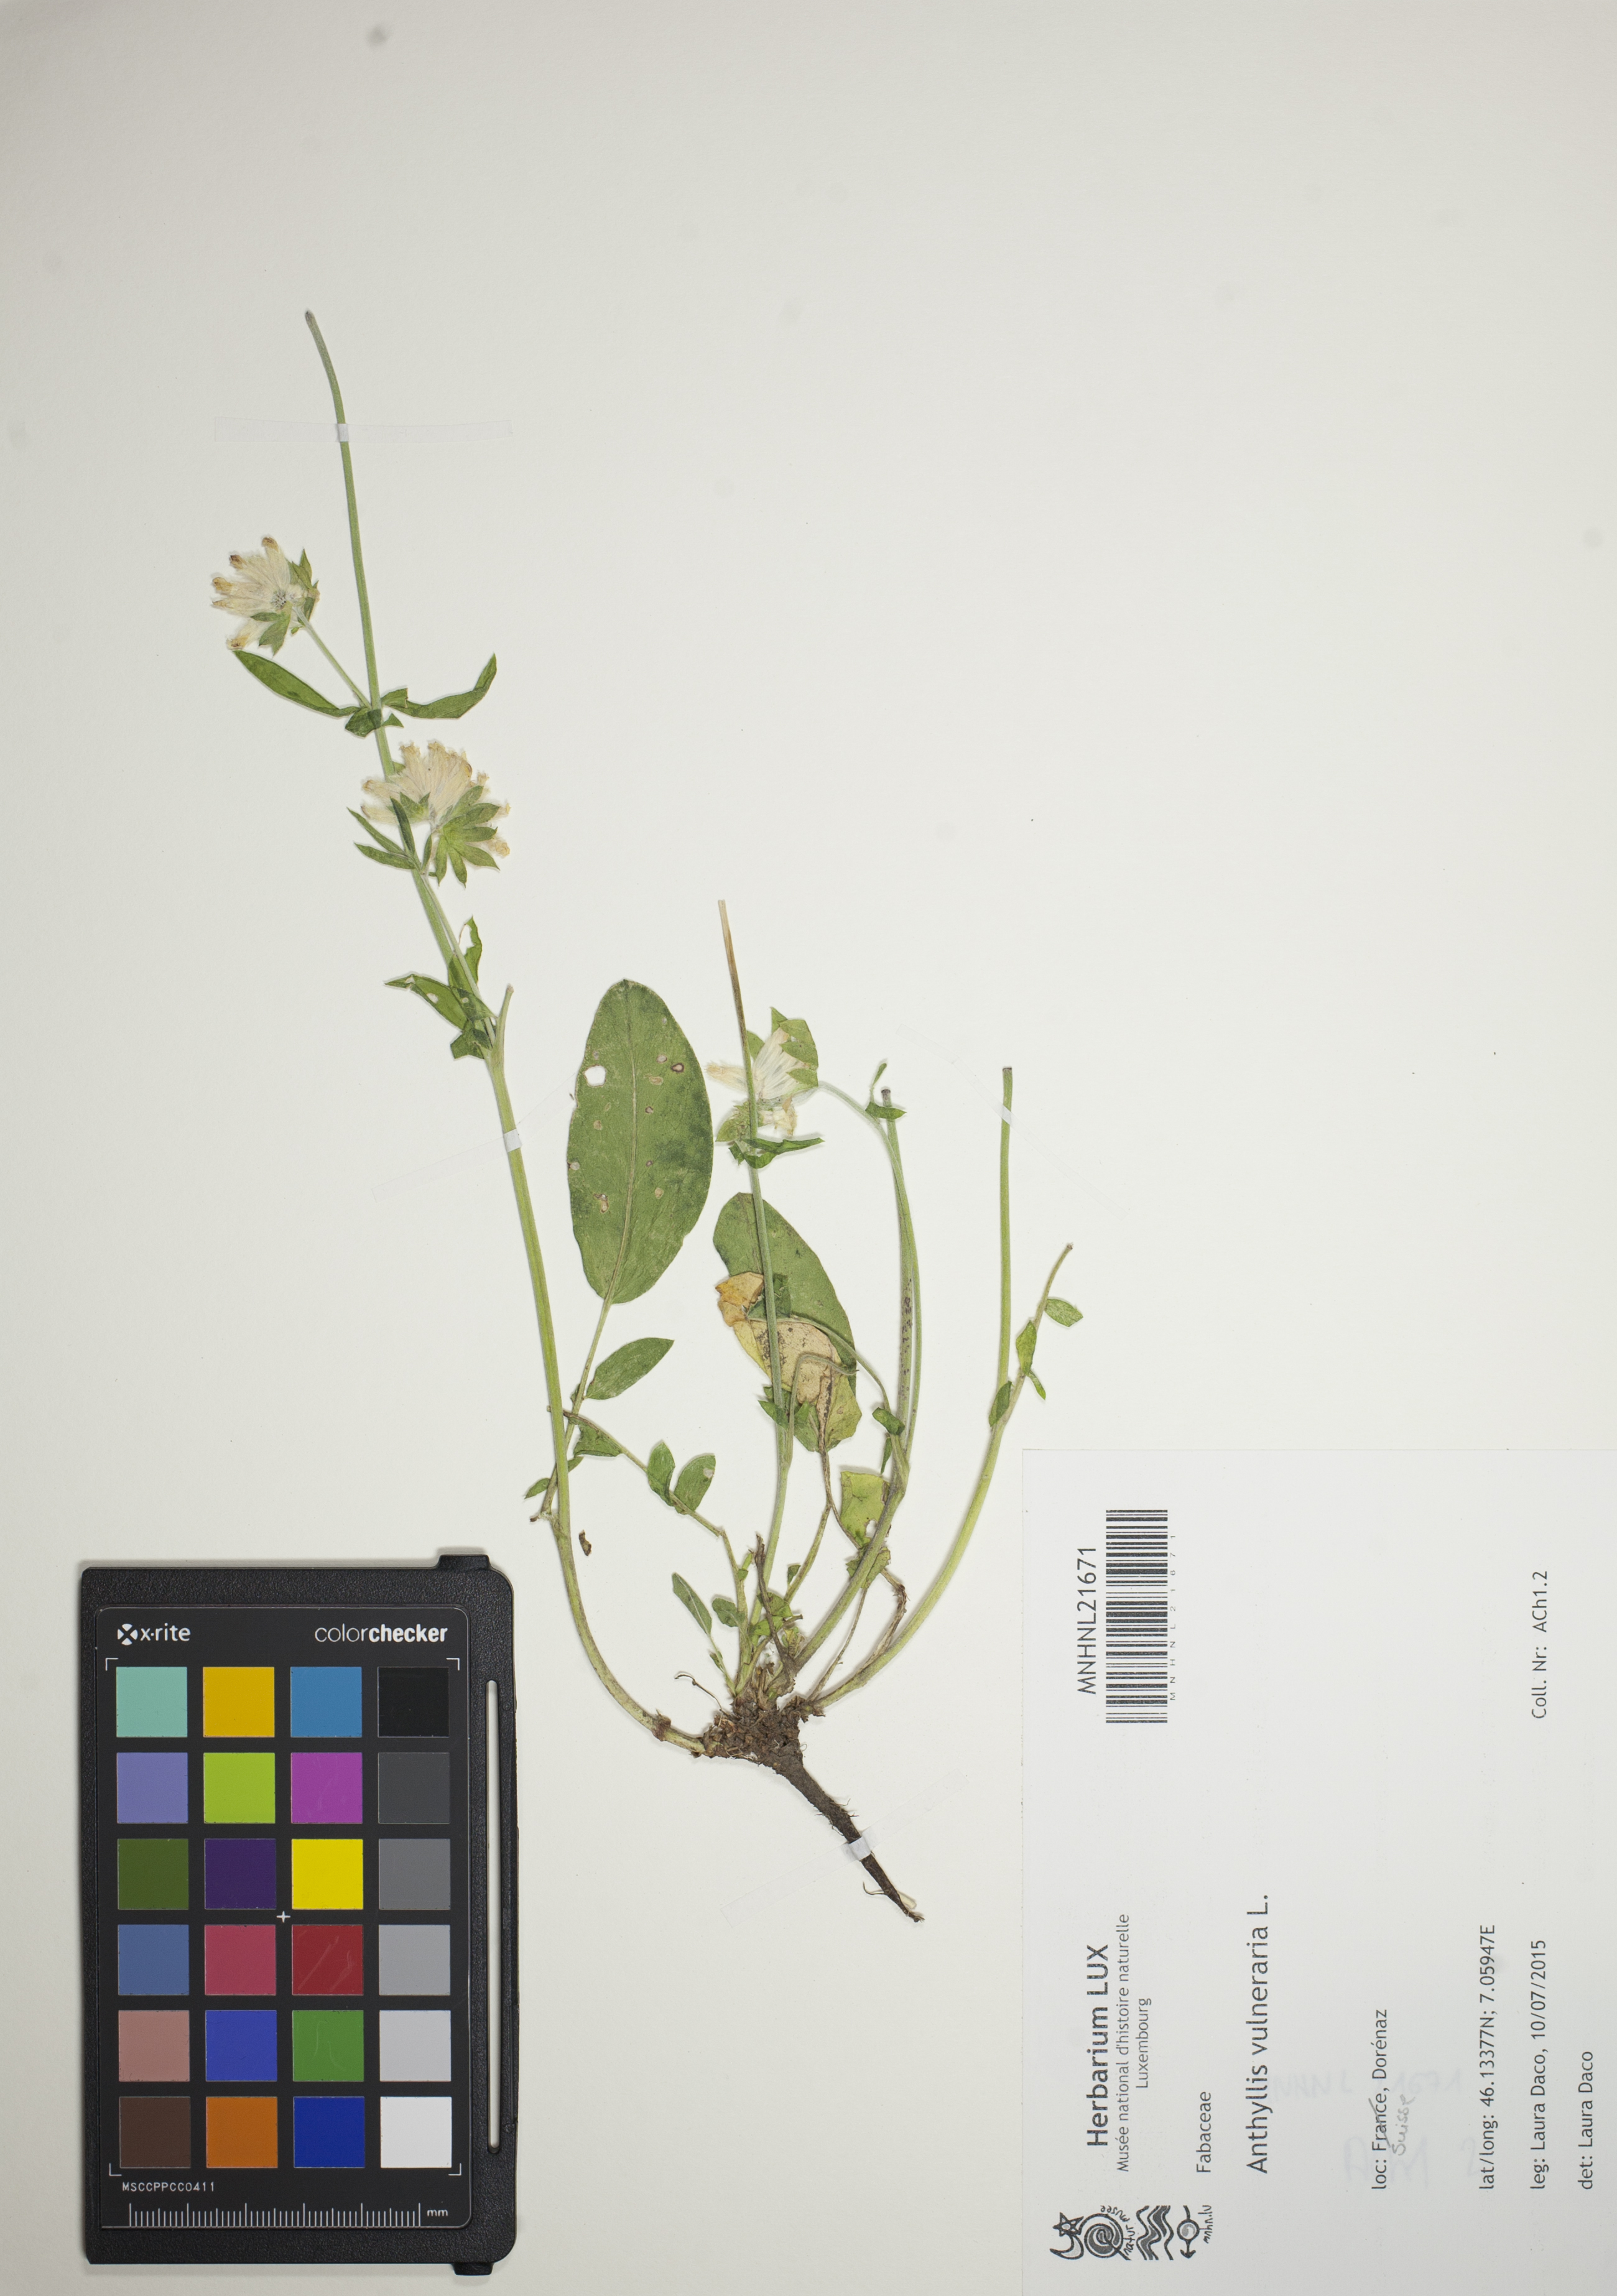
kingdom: Plantae
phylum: Tracheophyta
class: Magnoliopsida
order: Fabales
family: Fabaceae
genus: Anthyllis
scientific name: Anthyllis vulneraria
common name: Kidney vetch
